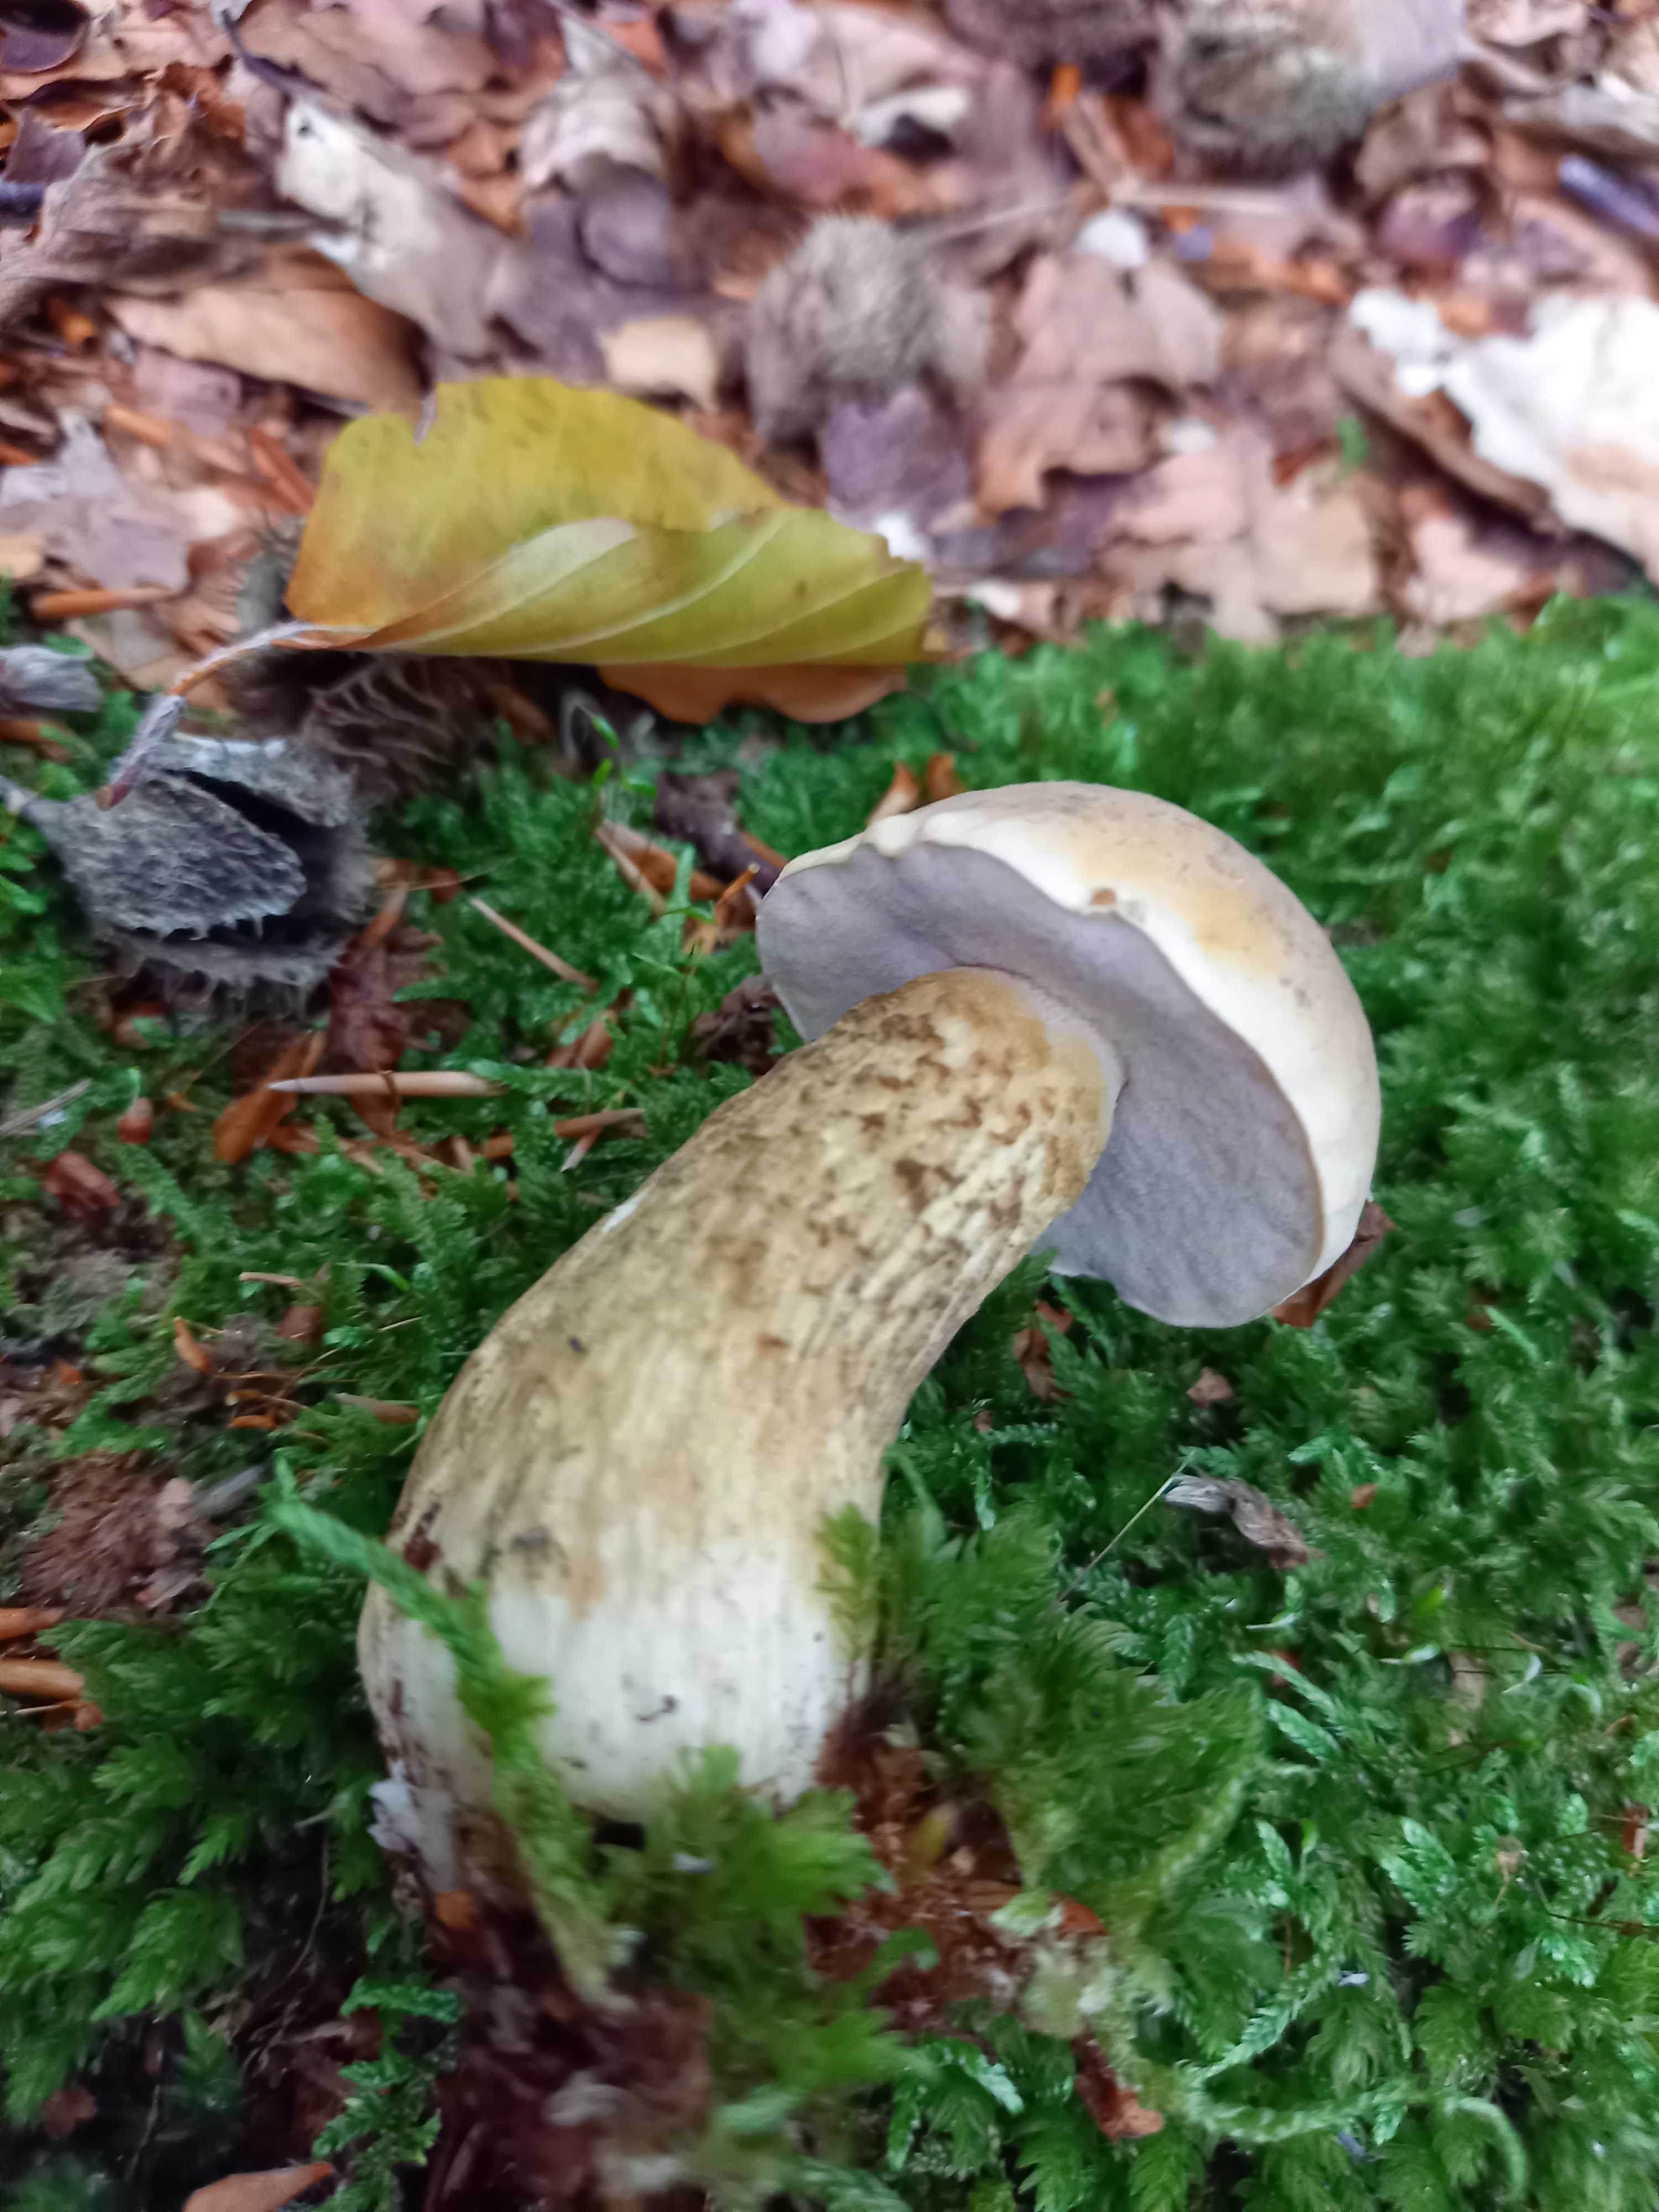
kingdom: Fungi
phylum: Basidiomycota
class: Agaricomycetes
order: Boletales
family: Boletaceae
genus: Tylopilus
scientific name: Tylopilus felleus
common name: galderørhat
